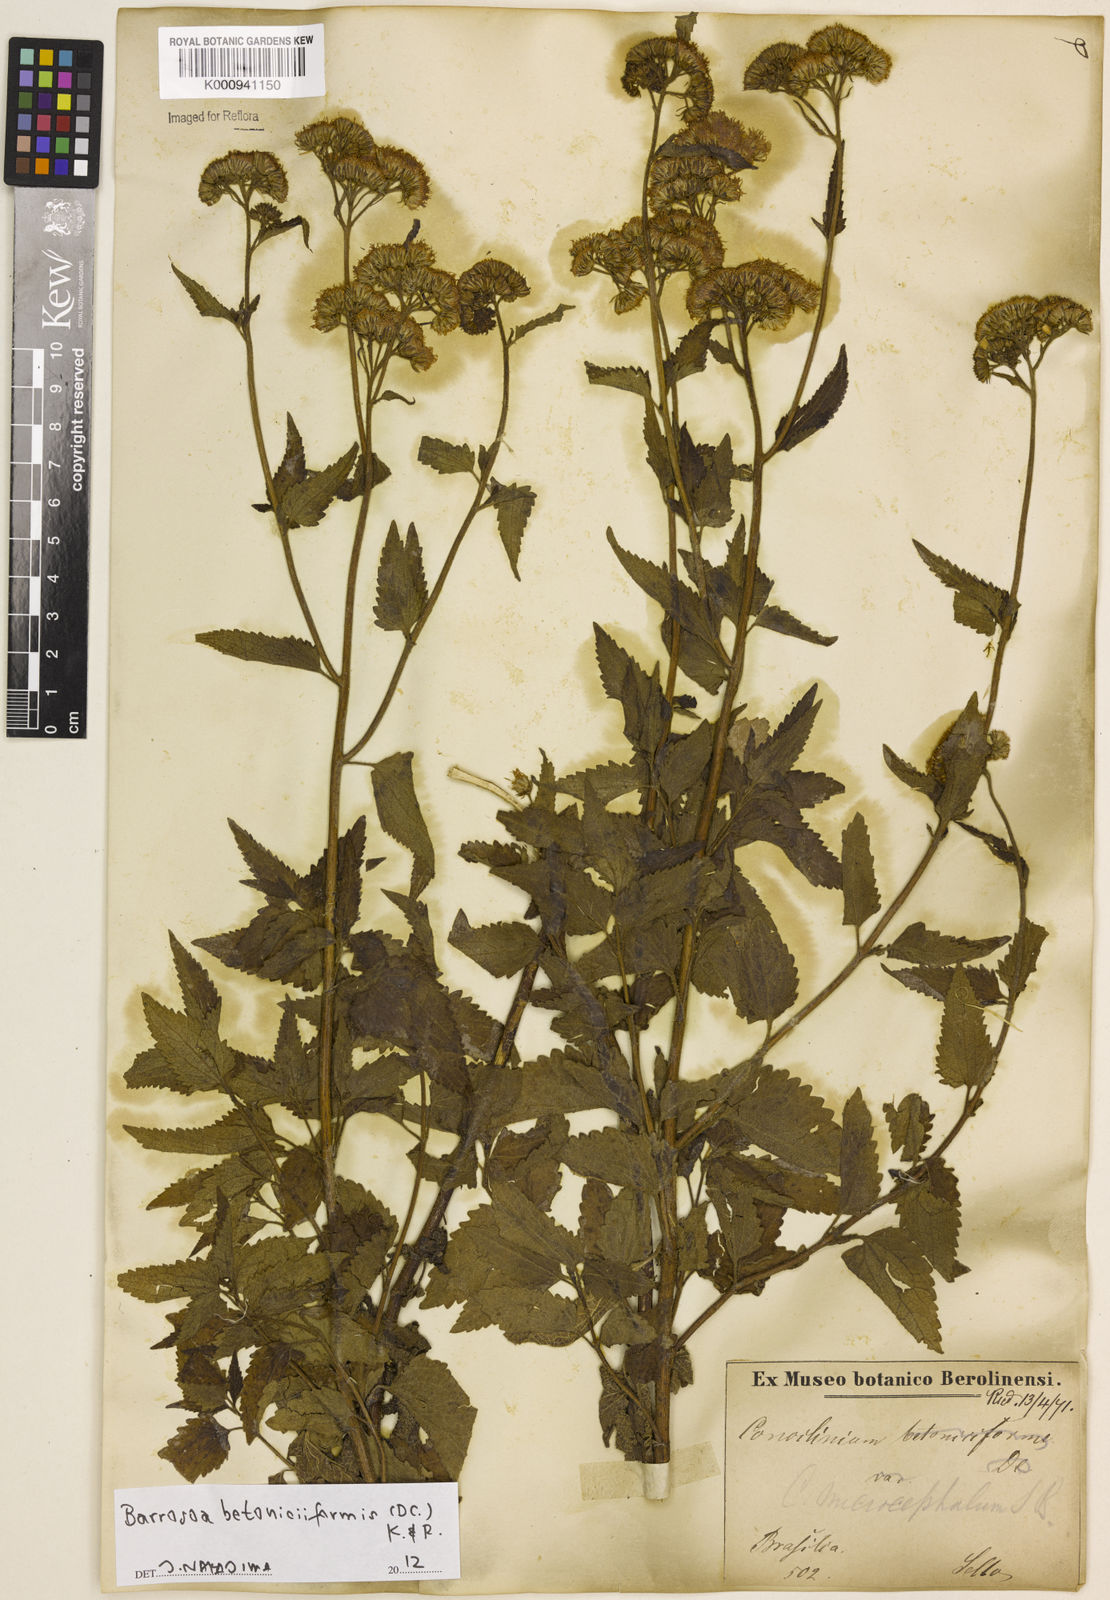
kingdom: Plantae
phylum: Tracheophyta
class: Magnoliopsida
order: Asterales
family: Asteraceae
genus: Barrosoa
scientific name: Barrosoa betoniciformis
